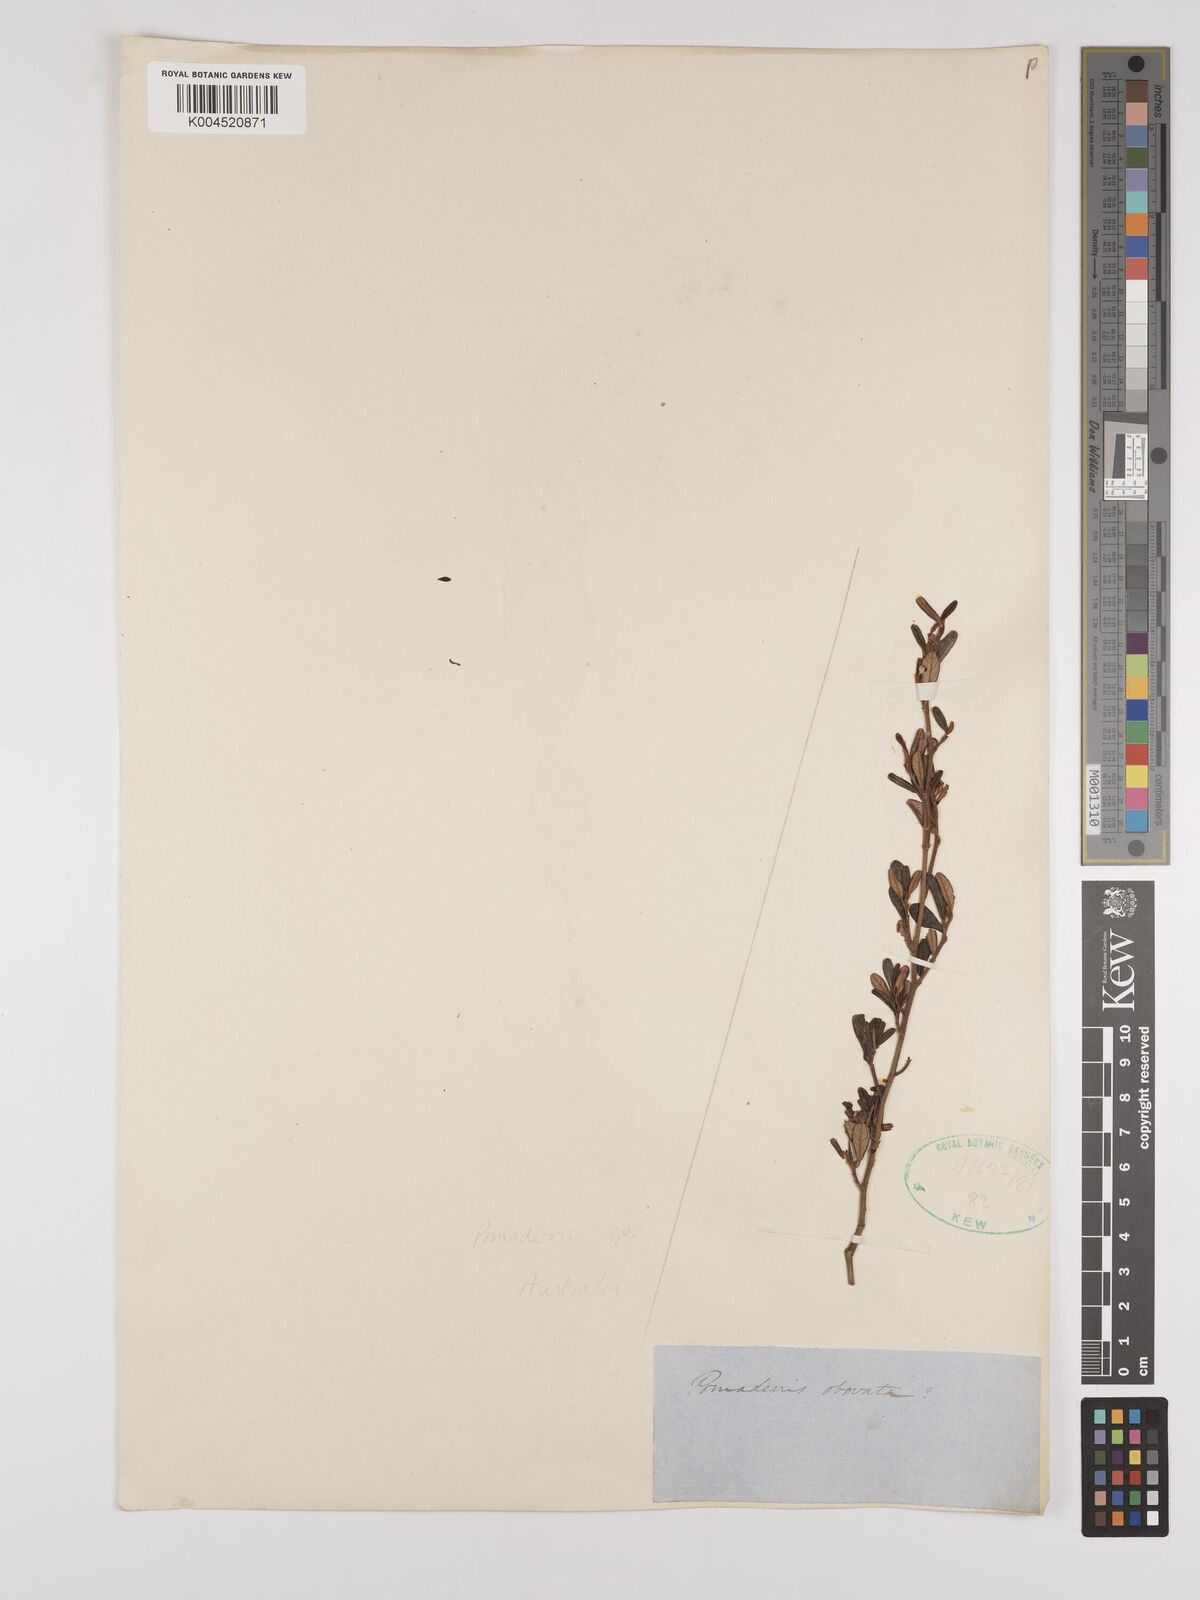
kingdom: Plantae
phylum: Tracheophyta
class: Magnoliopsida
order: Rosales
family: Rhamnaceae
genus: Pomaderris
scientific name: Pomaderris
